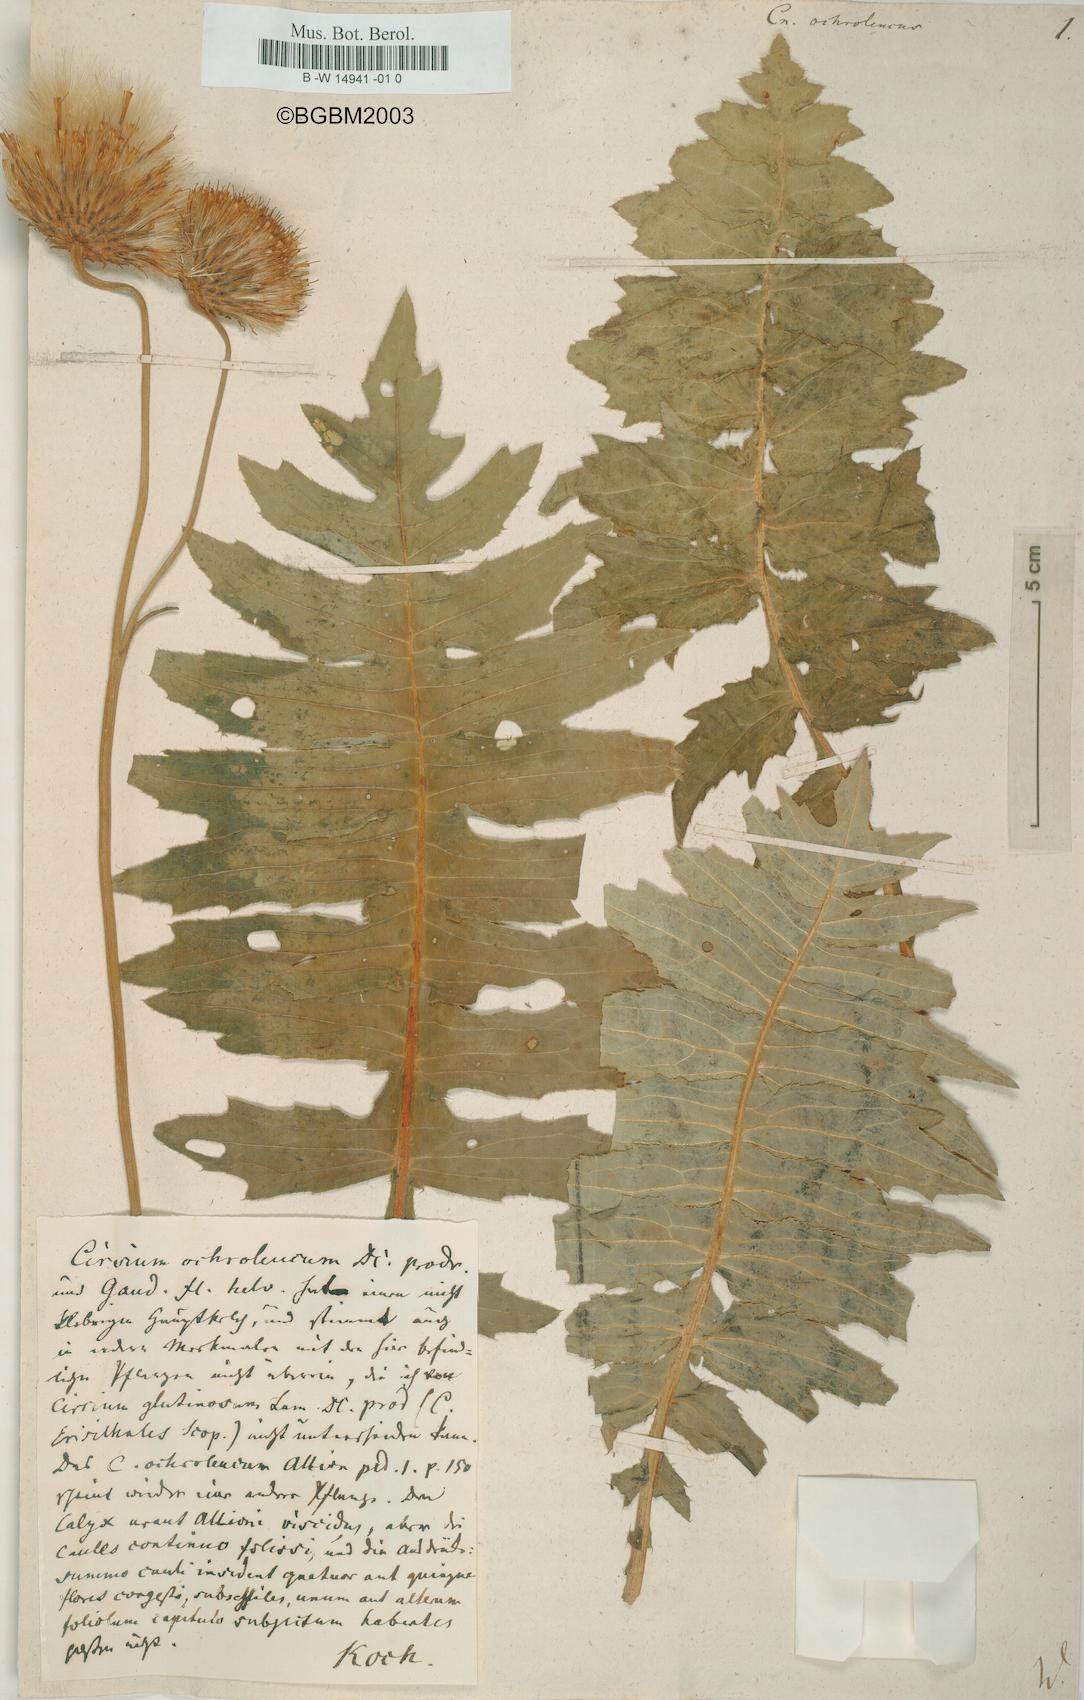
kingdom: Plantae
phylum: Tracheophyta
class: Magnoliopsida
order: Asterales
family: Asteraceae
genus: Cirsium
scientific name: Cirsium ochroleucum
